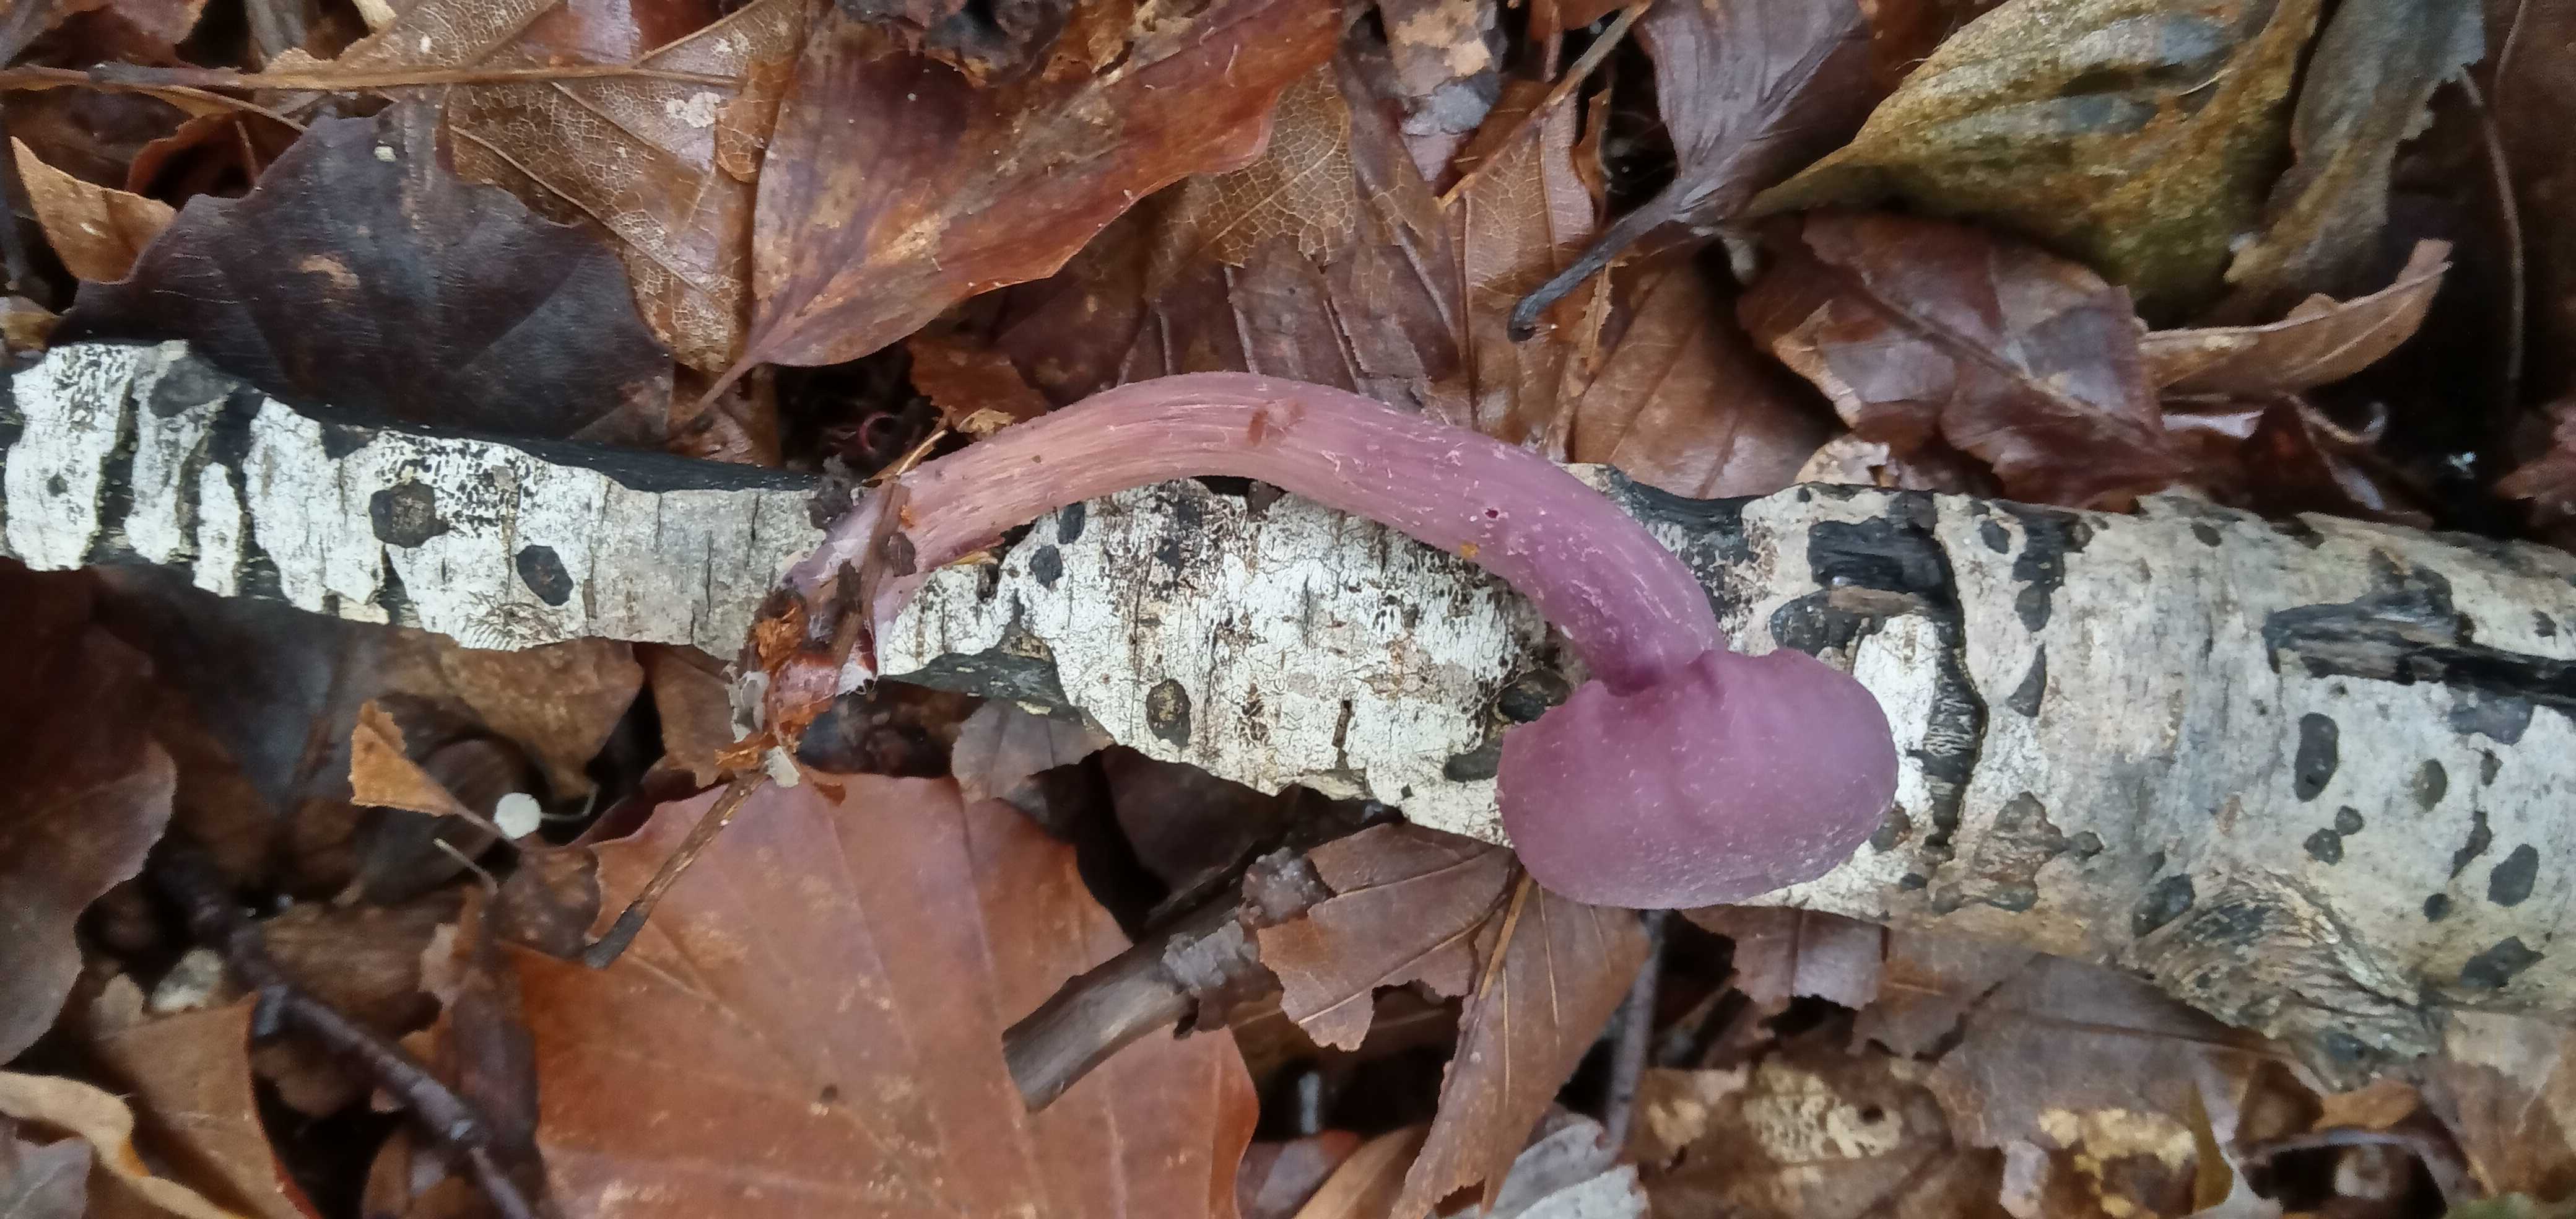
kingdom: Fungi
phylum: Basidiomycota
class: Agaricomycetes
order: Agaricales
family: Hydnangiaceae
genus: Laccaria
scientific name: Laccaria amethystina
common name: violet ametysthat
